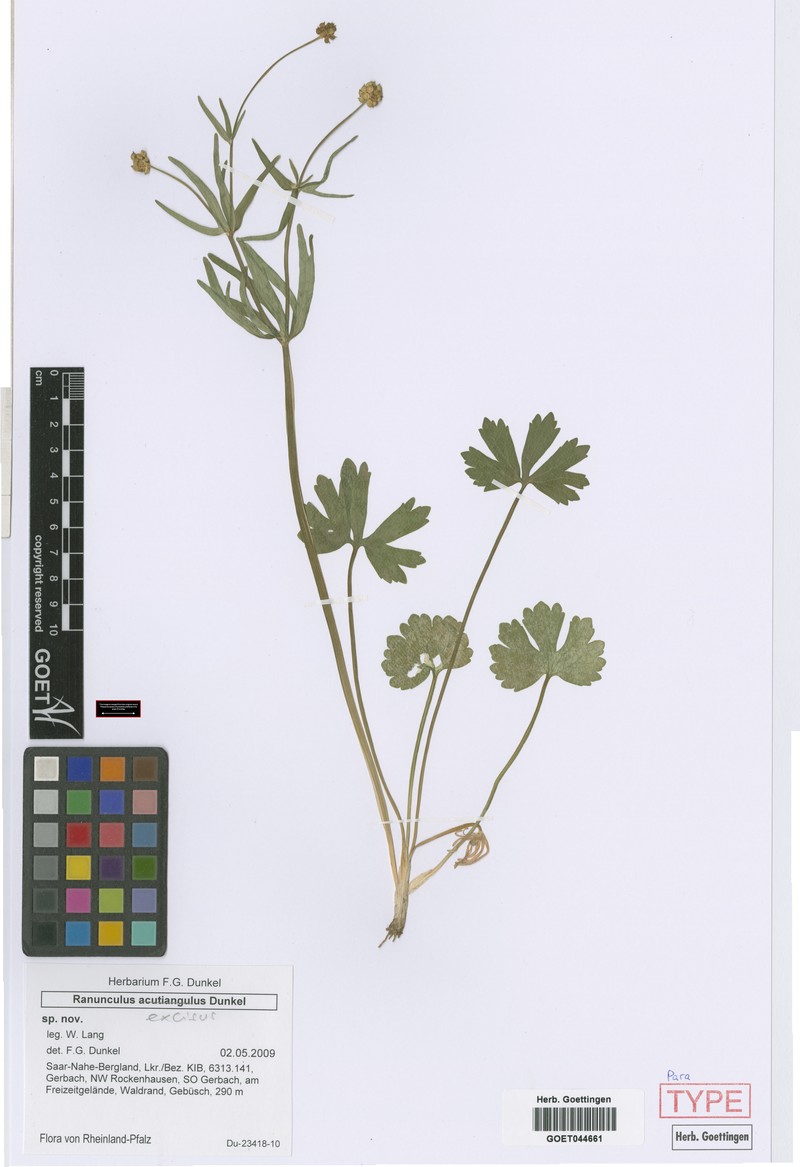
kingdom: Plantae
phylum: Tracheophyta
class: Magnoliopsida
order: Ranunculales
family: Ranunculaceae
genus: Ranunculus
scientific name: Ranunculus excisus
